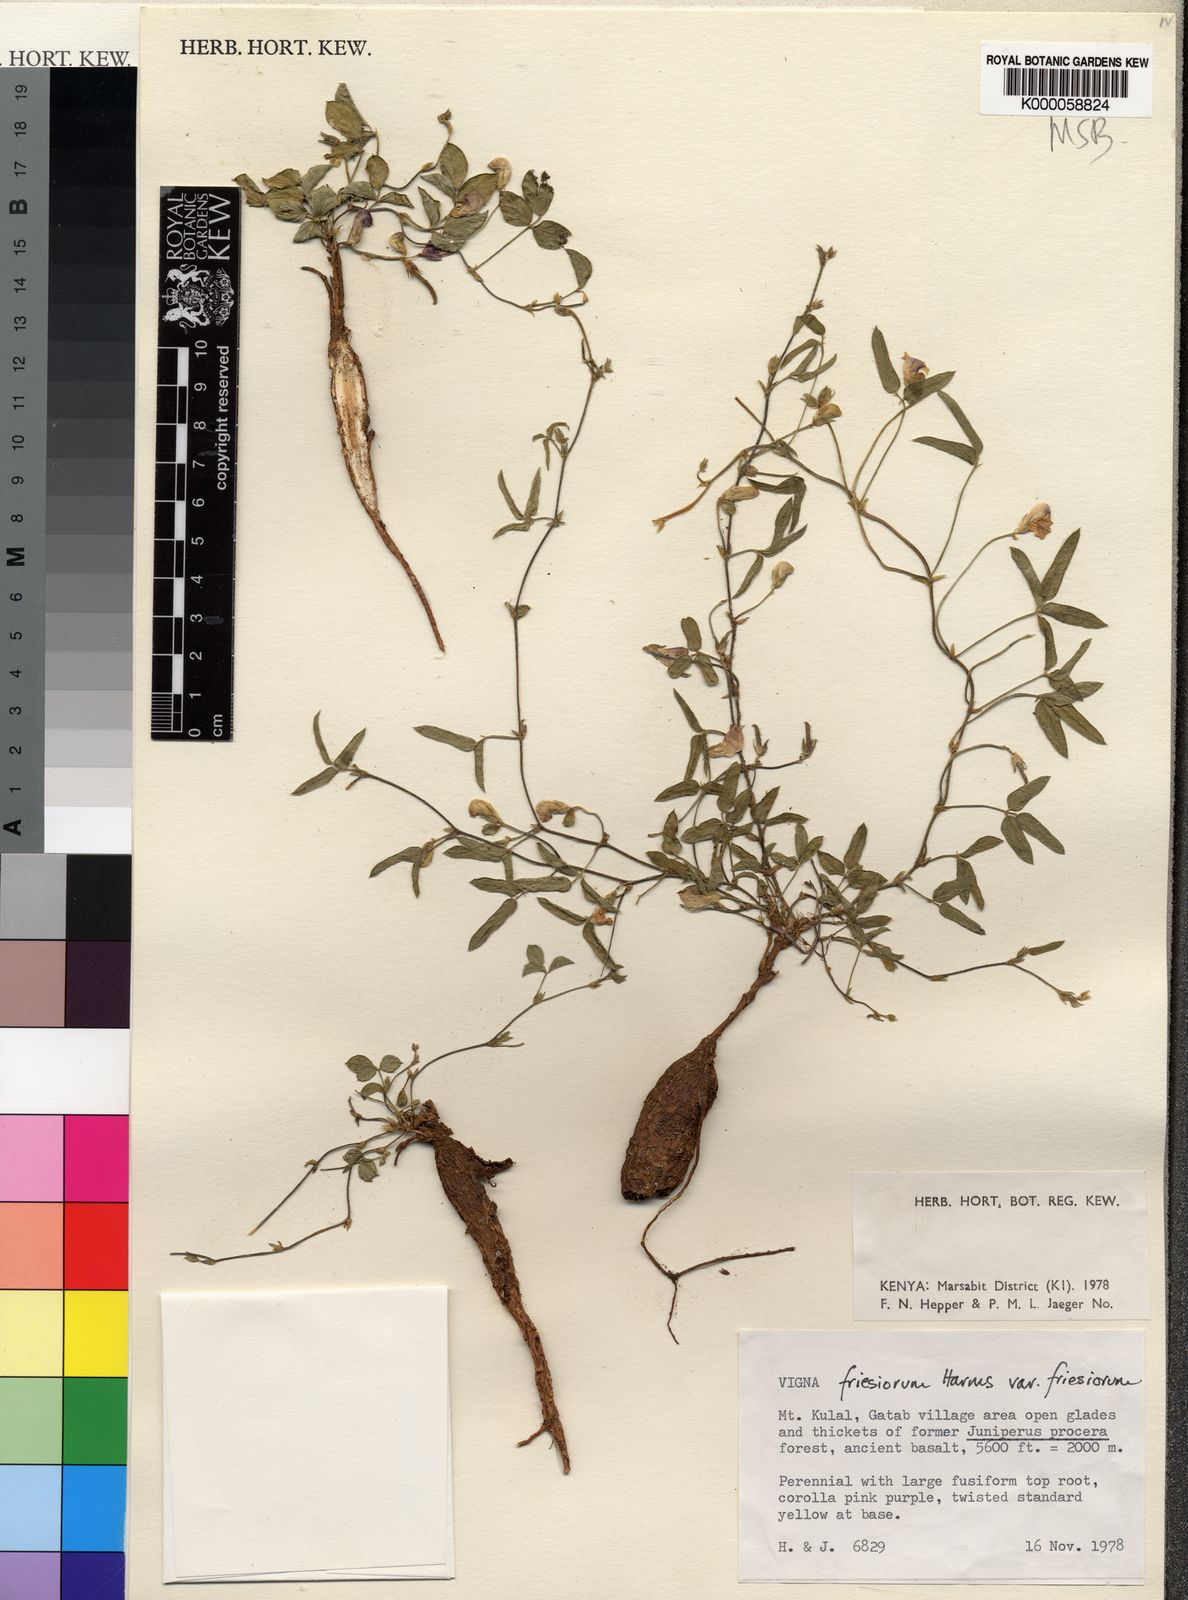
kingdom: Plantae
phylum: Tracheophyta
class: Magnoliopsida
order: Fabales
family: Fabaceae
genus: Vigna
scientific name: Vigna friesiorum
